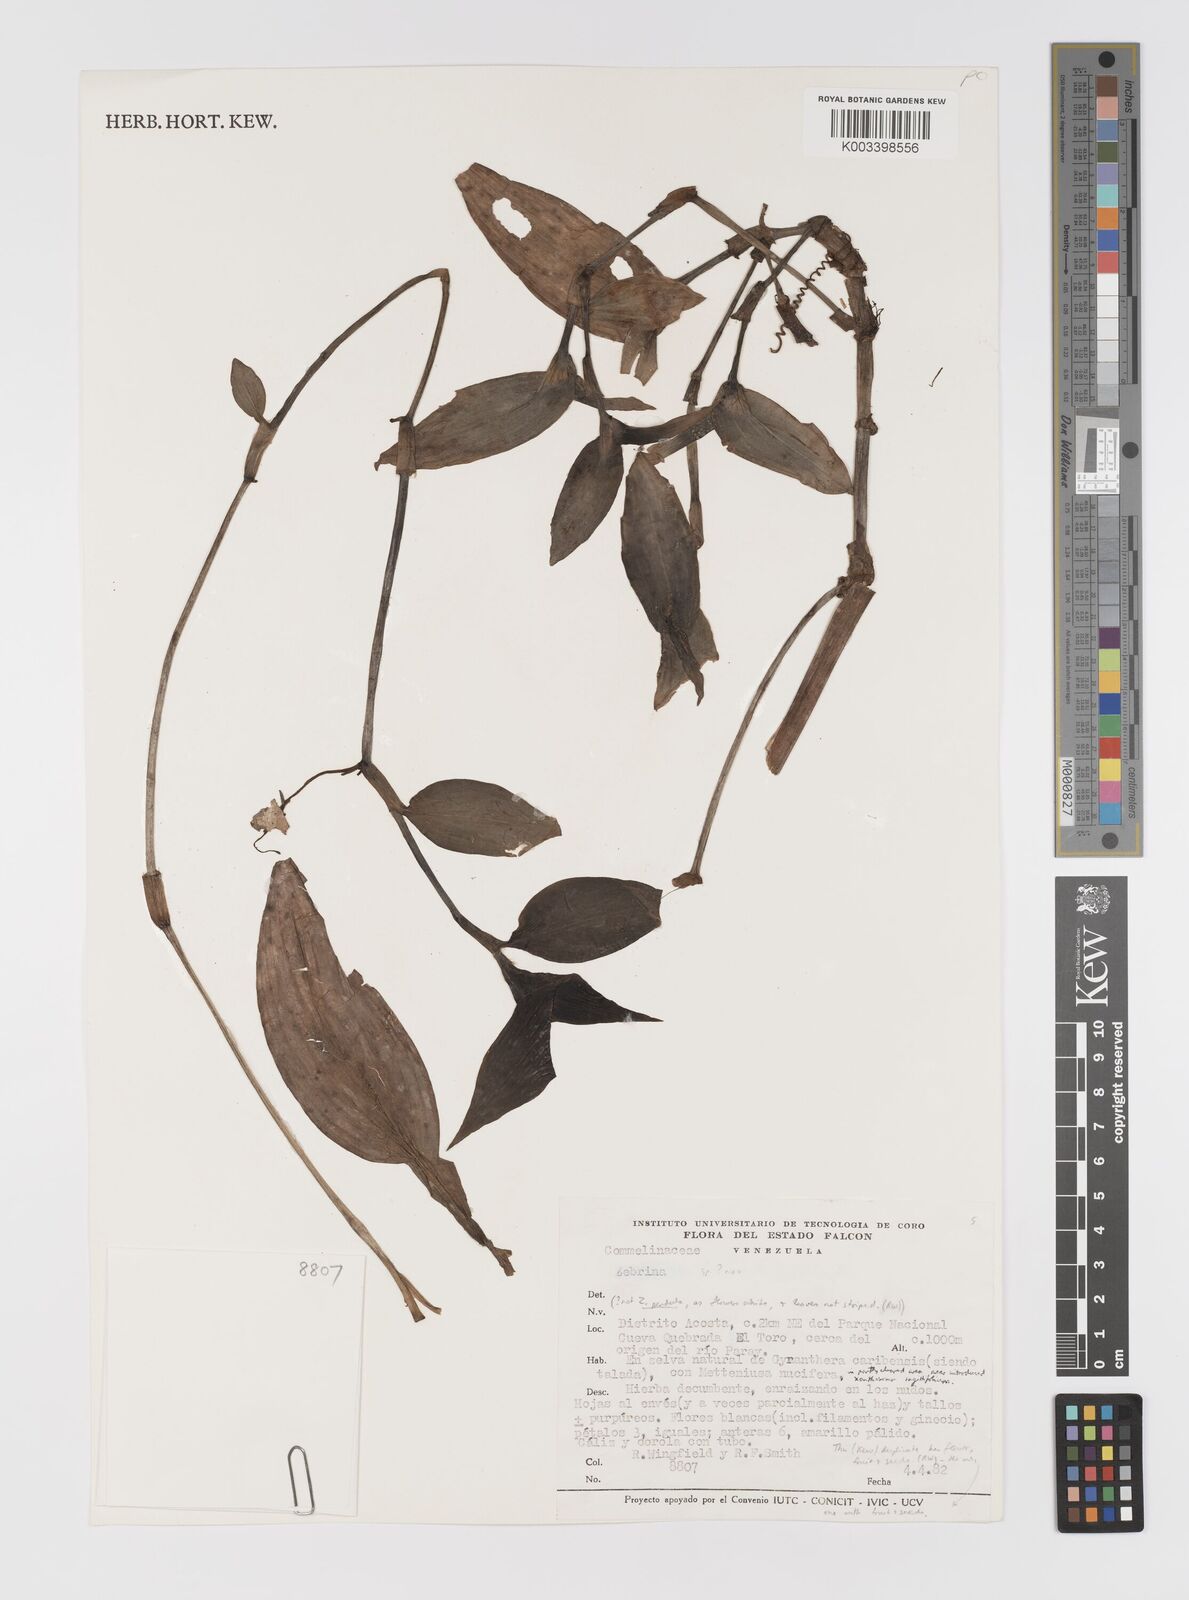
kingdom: Plantae
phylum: Tracheophyta
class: Liliopsida
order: Commelinales
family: Commelinaceae
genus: Tradescantia
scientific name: Tradescantia huehueteca
